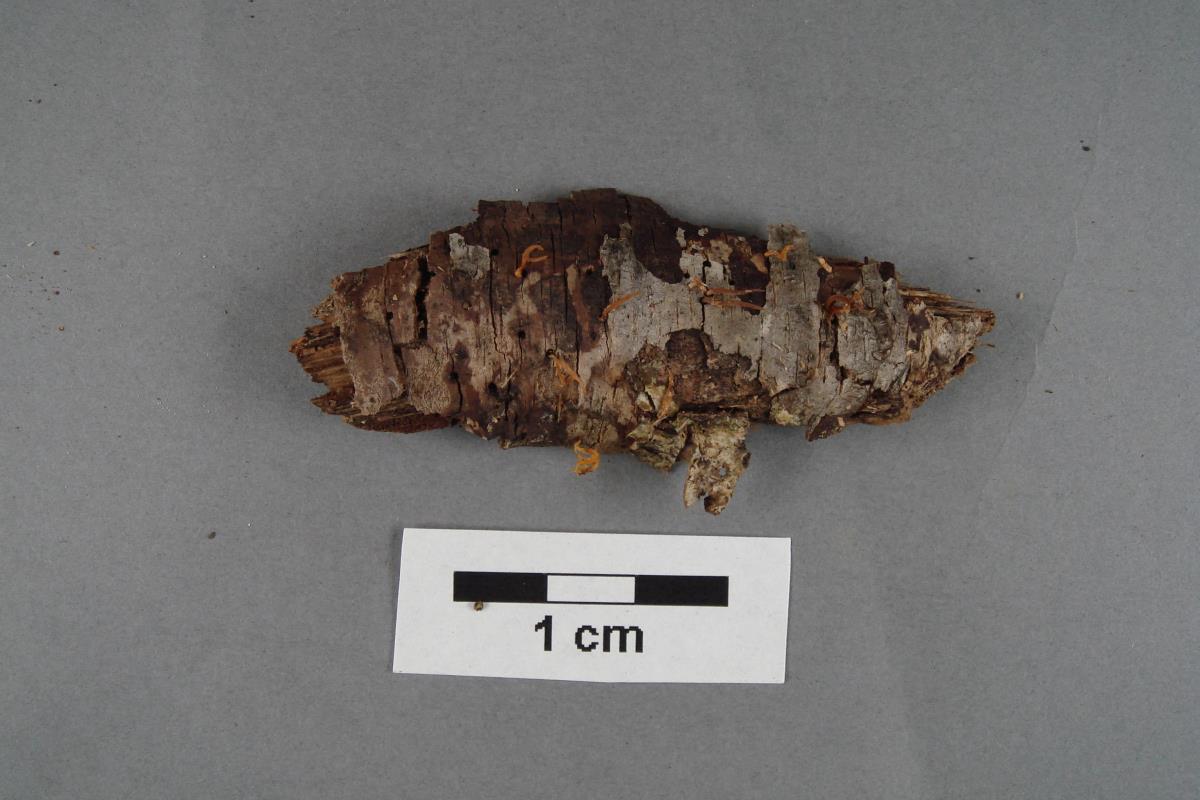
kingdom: Fungi
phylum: Basidiomycota
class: Dacrymycetes
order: Dacrymycetales
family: Dacrymycetaceae
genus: Calocera
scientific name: Calocera fusca
